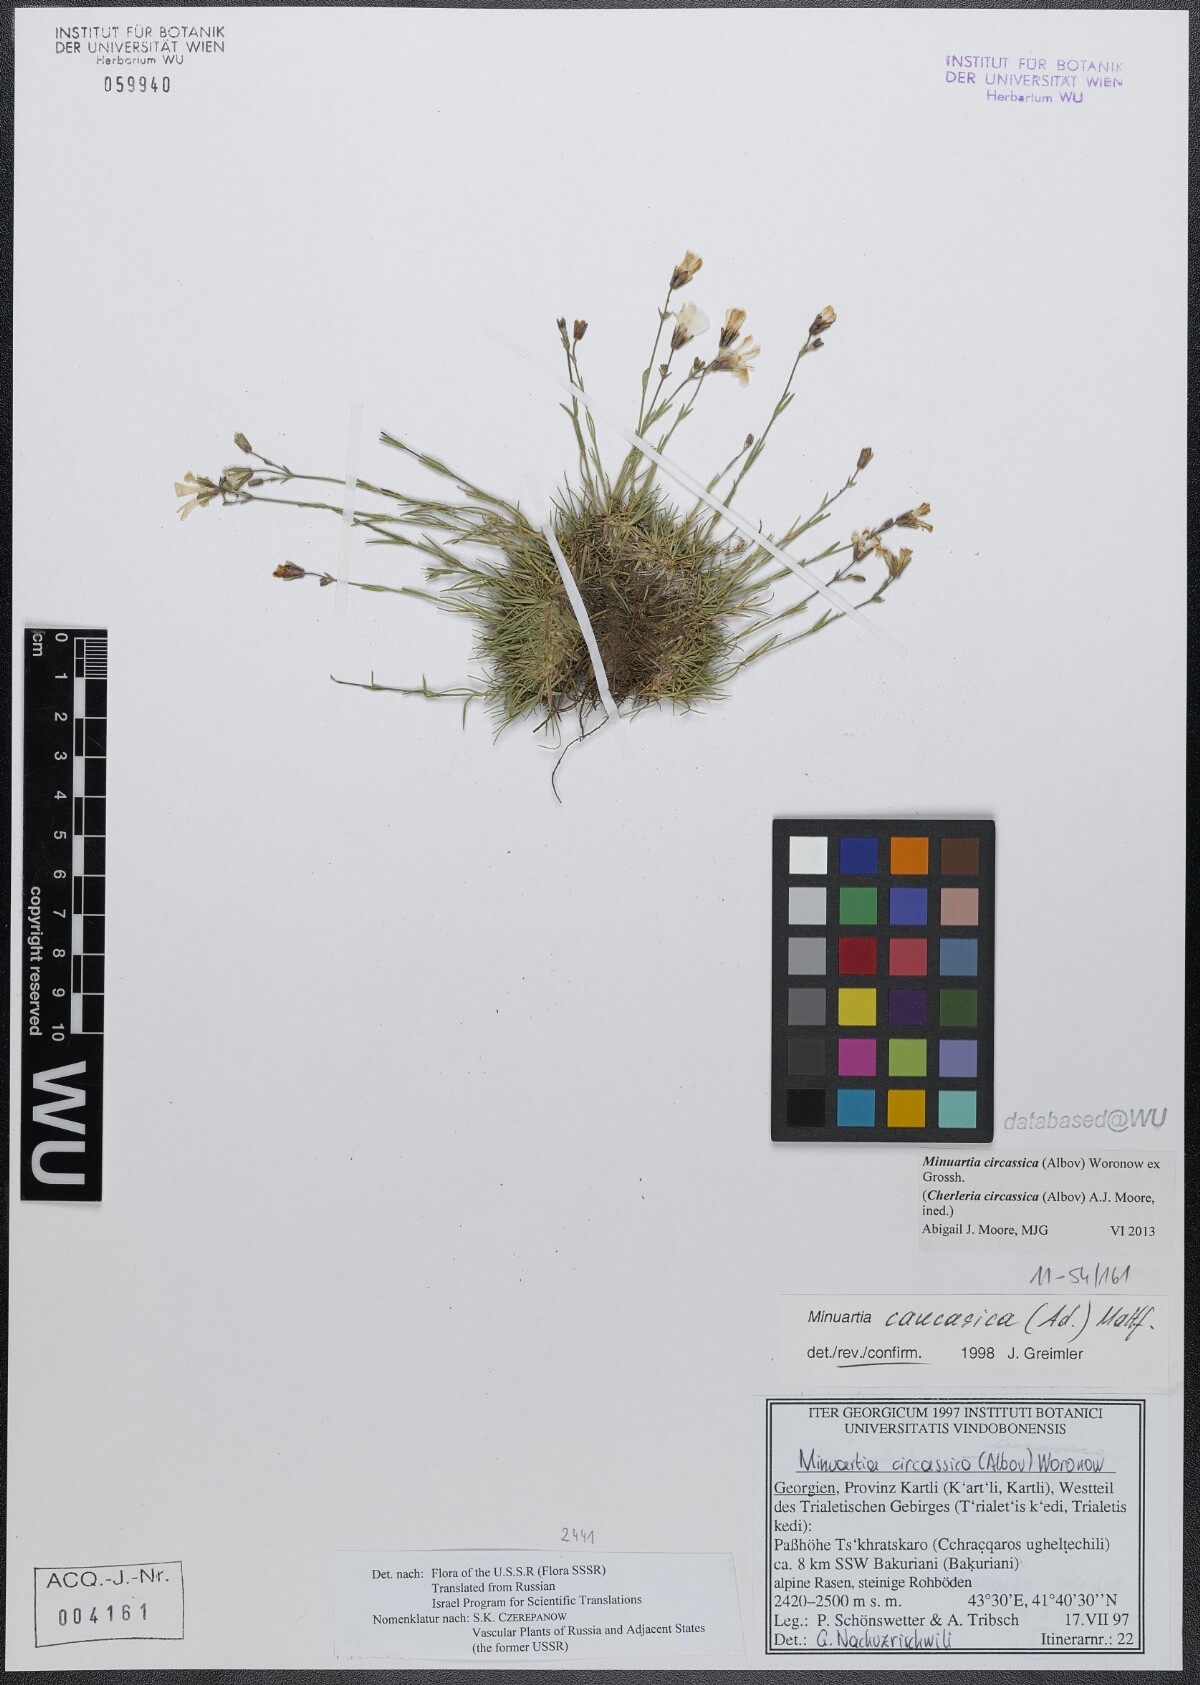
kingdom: Plantae
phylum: Tracheophyta
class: Magnoliopsida
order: Caryophyllales
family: Caryophyllaceae
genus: Cherleria
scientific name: Cherleria circassica
